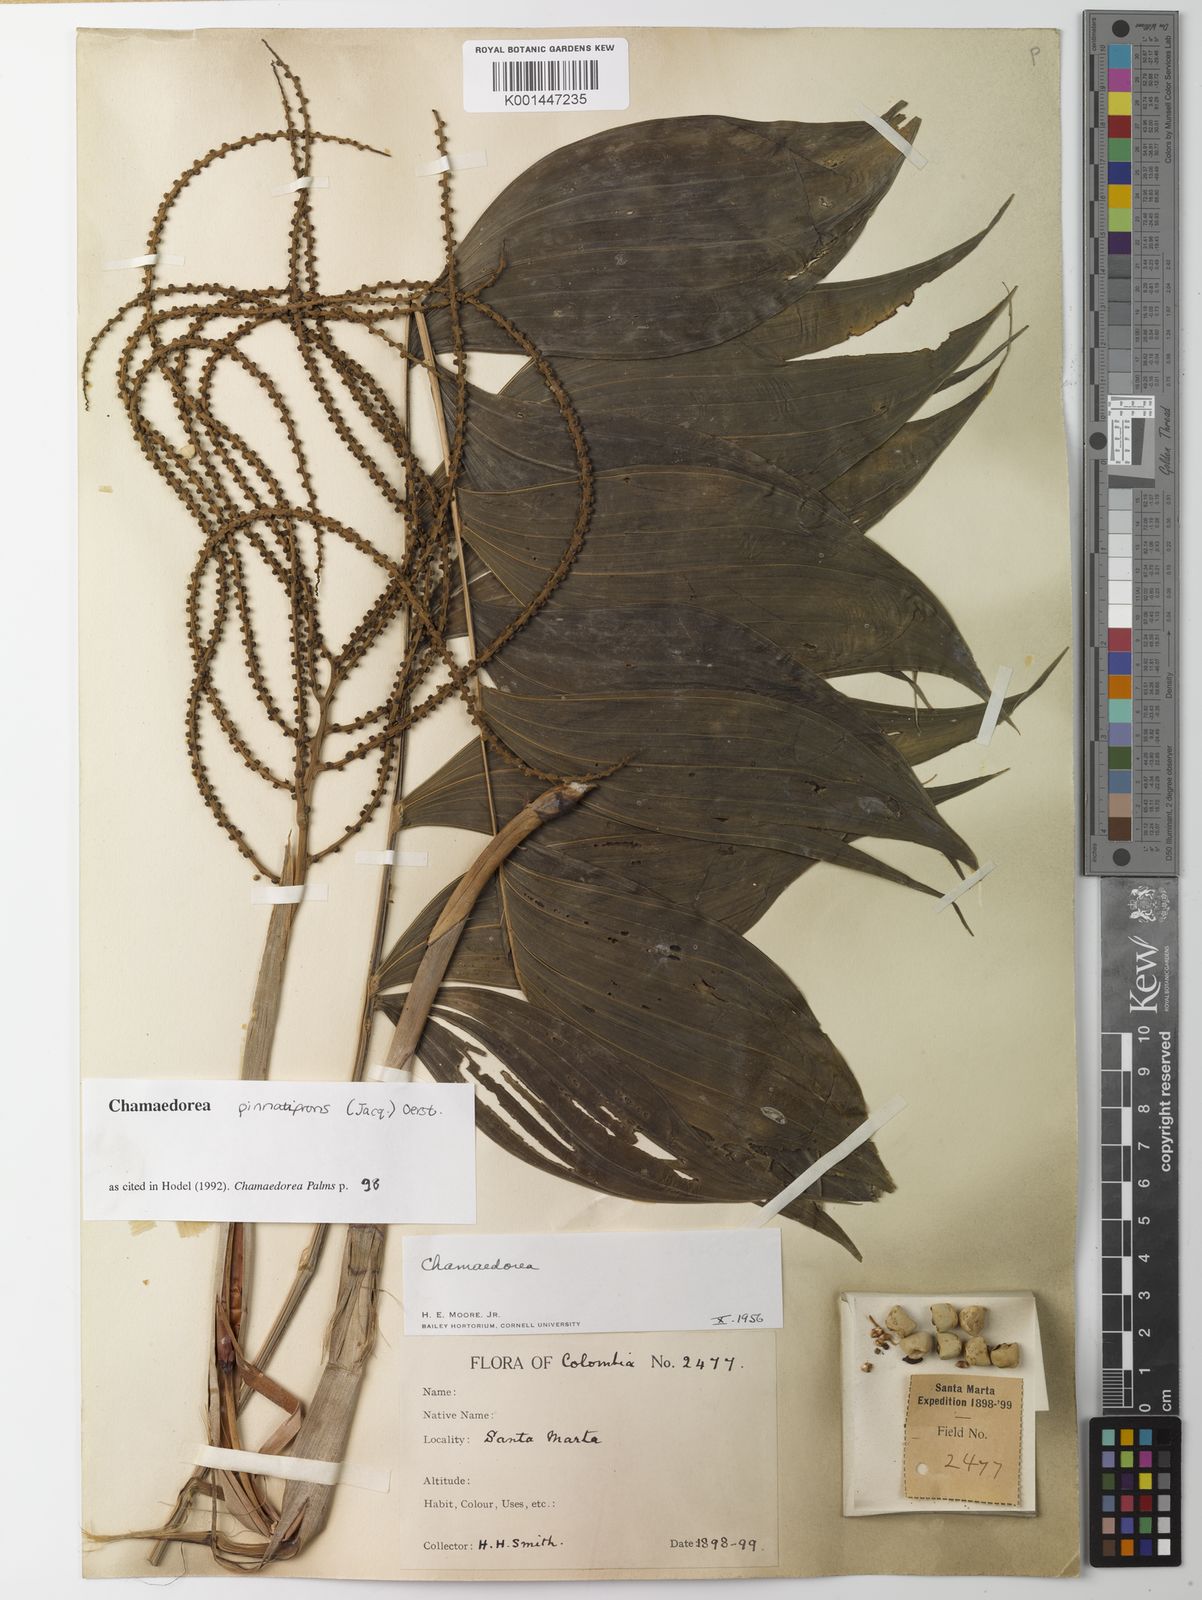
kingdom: Plantae
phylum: Tracheophyta
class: Liliopsida
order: Arecales
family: Arecaceae
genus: Chamaedorea
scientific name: Chamaedorea pinnatifrons
